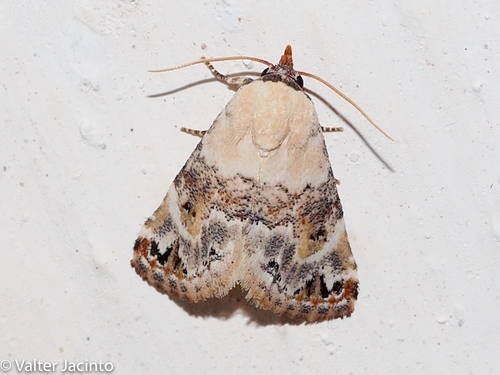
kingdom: Animalia
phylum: Arthropoda
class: Insecta
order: Lepidoptera
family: Noctuidae
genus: Eublemma
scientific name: Eublemma scitula
